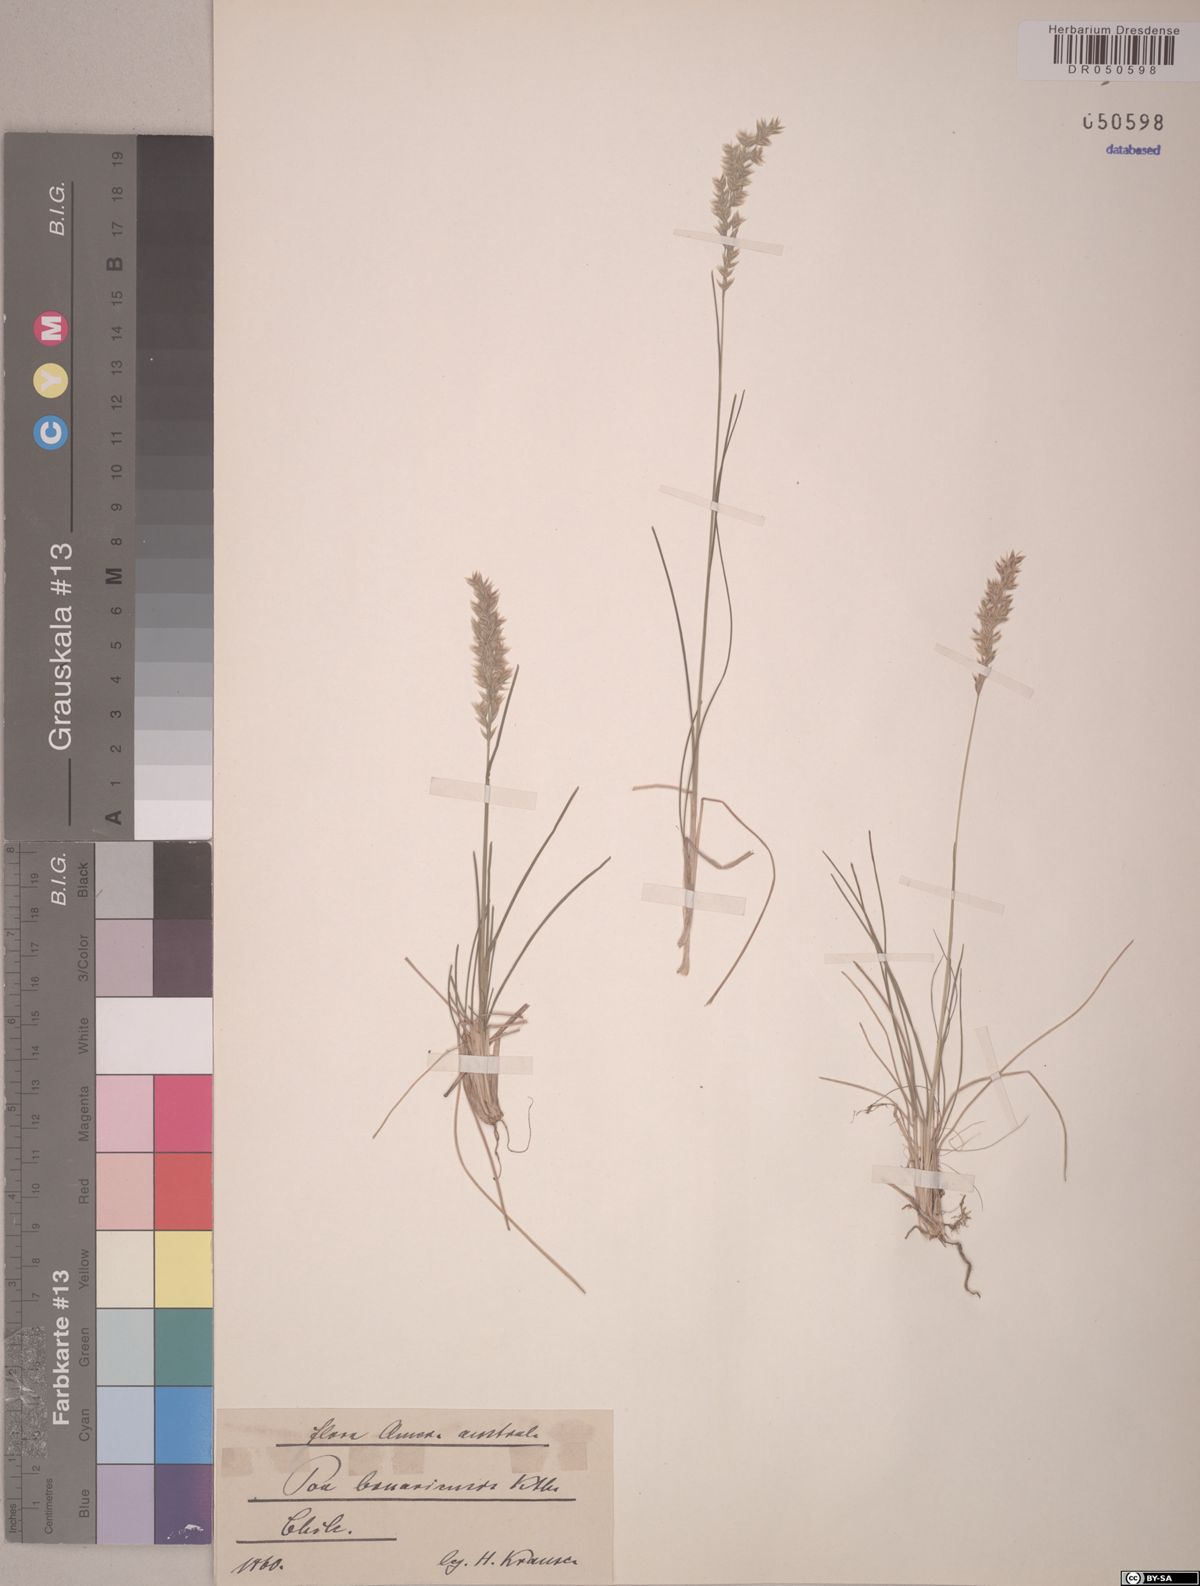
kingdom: Plantae
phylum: Tracheophyta
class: Liliopsida
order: Poales
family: Poaceae
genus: Poa
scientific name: Poa bonariensis
